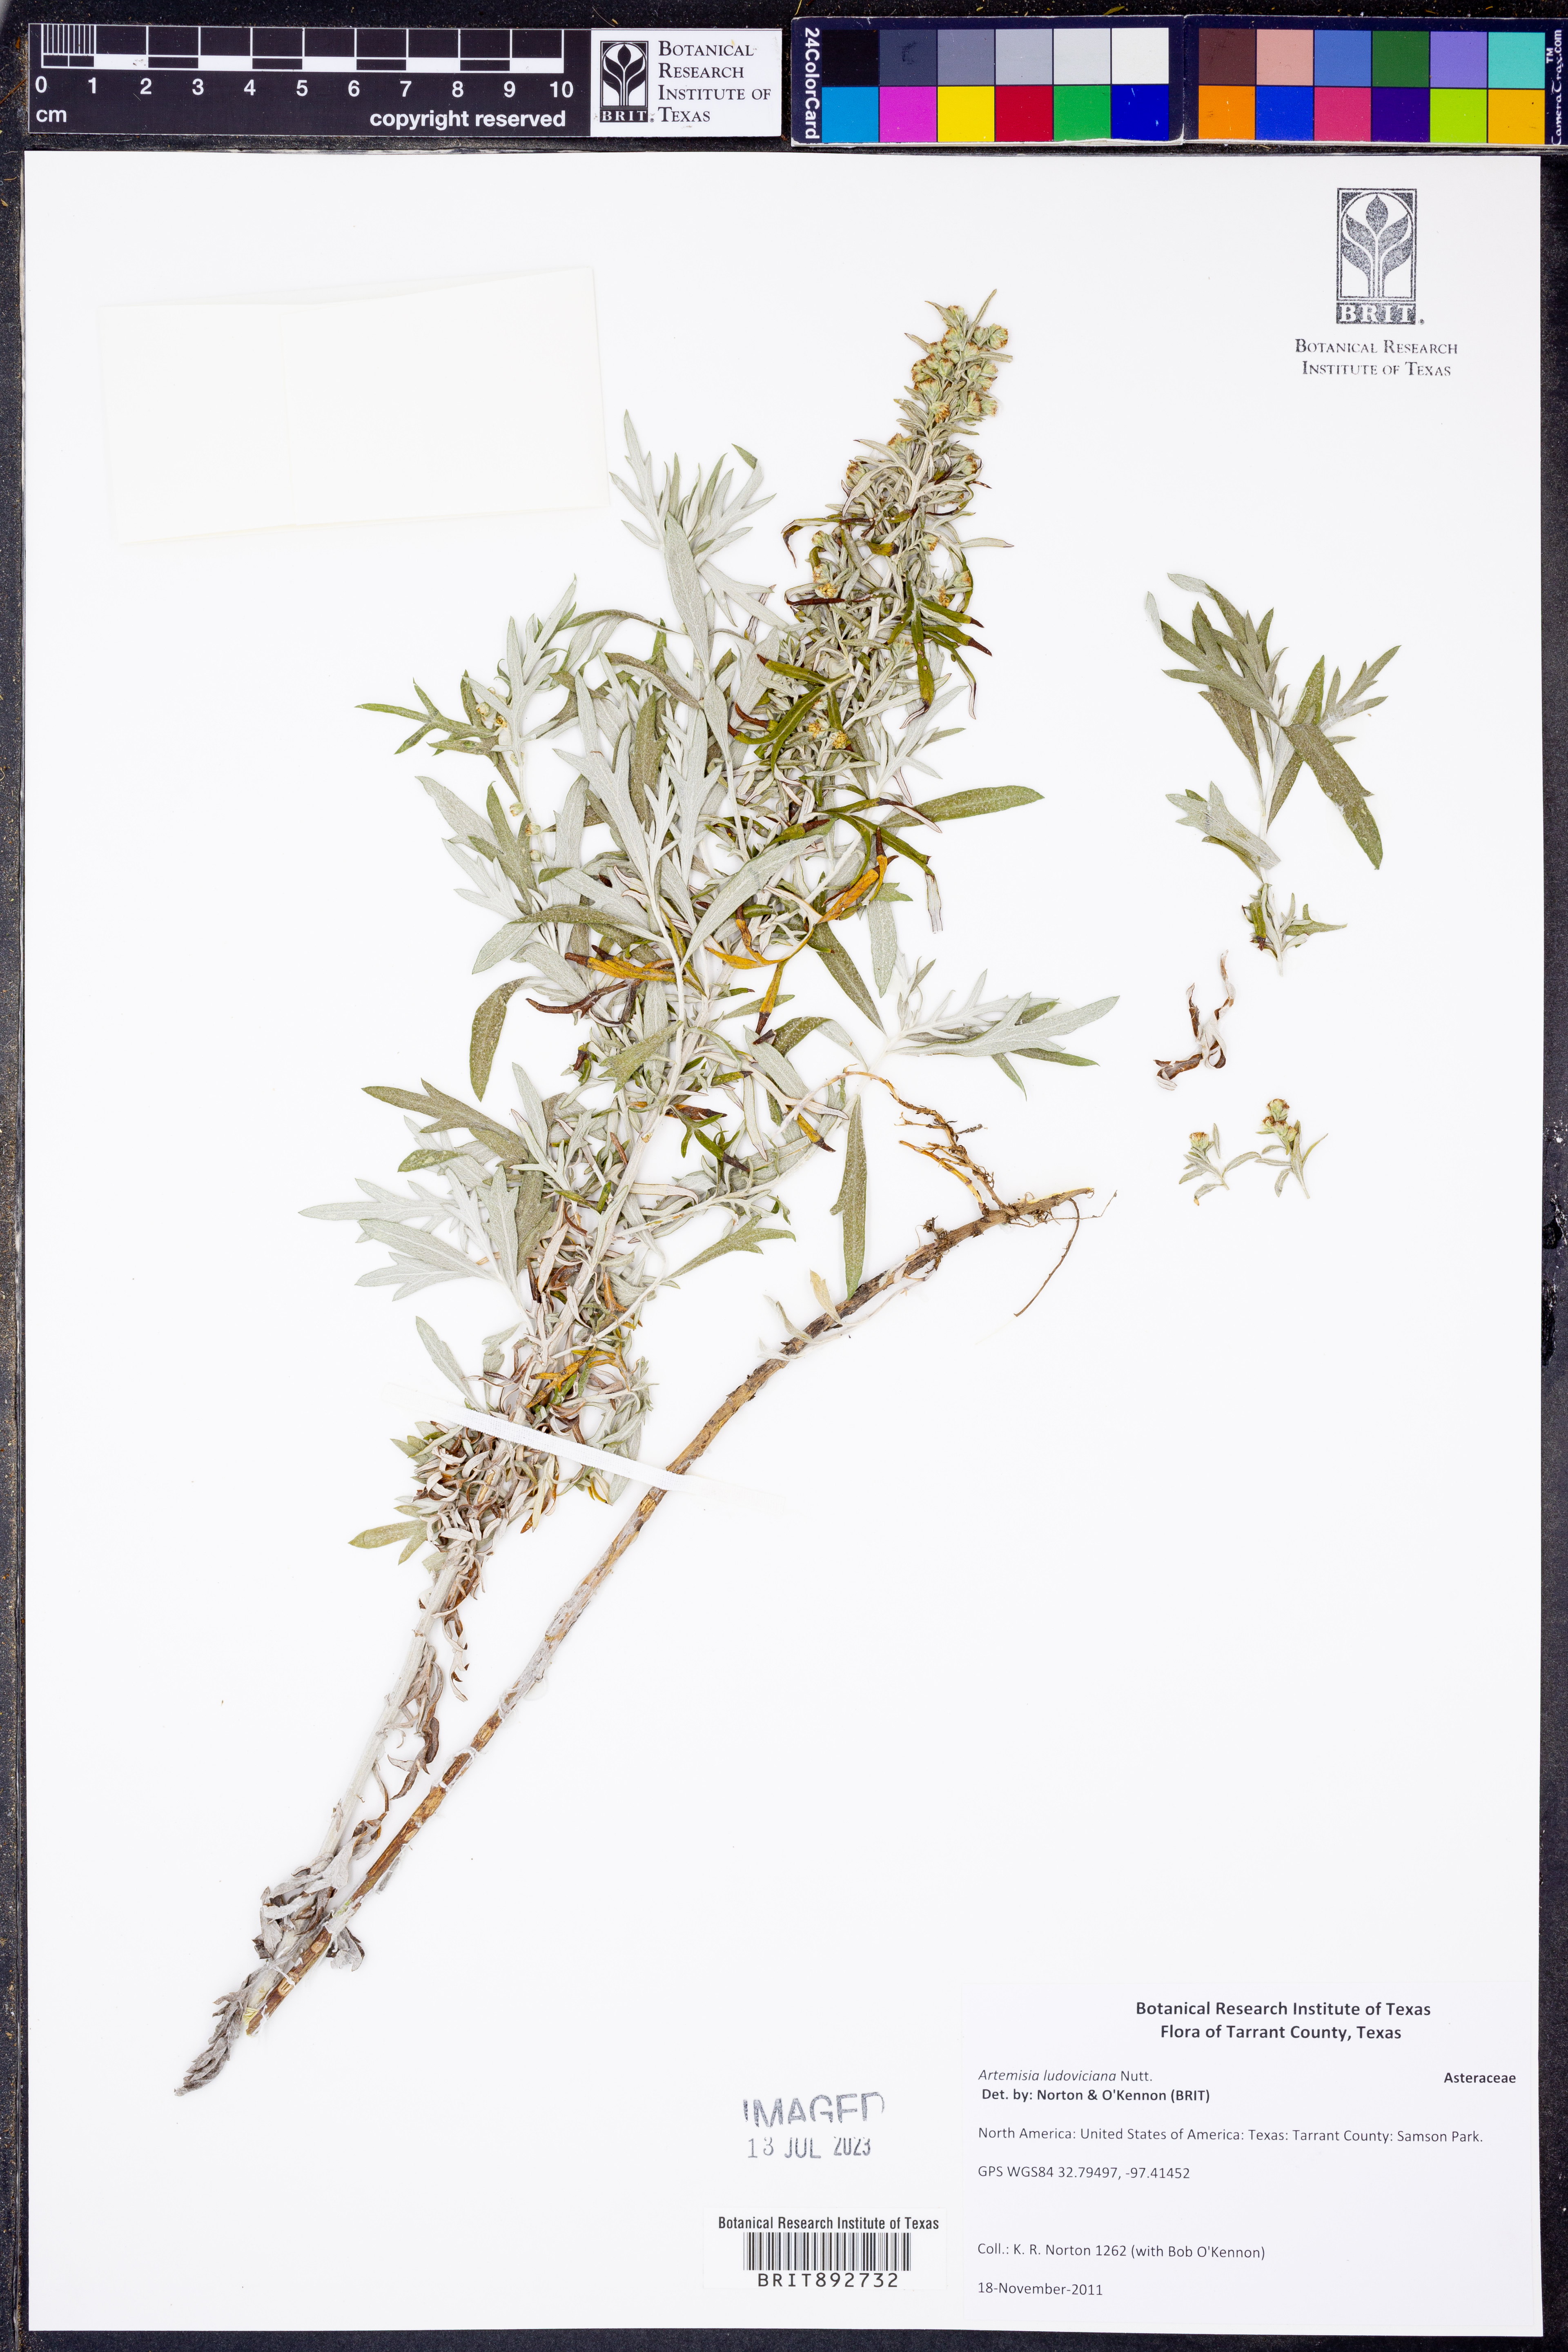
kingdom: Plantae
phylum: Tracheophyta
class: Magnoliopsida
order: Asterales
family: Asteraceae
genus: Artemisia
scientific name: Artemisia ludoviciana
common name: Western mugwort
